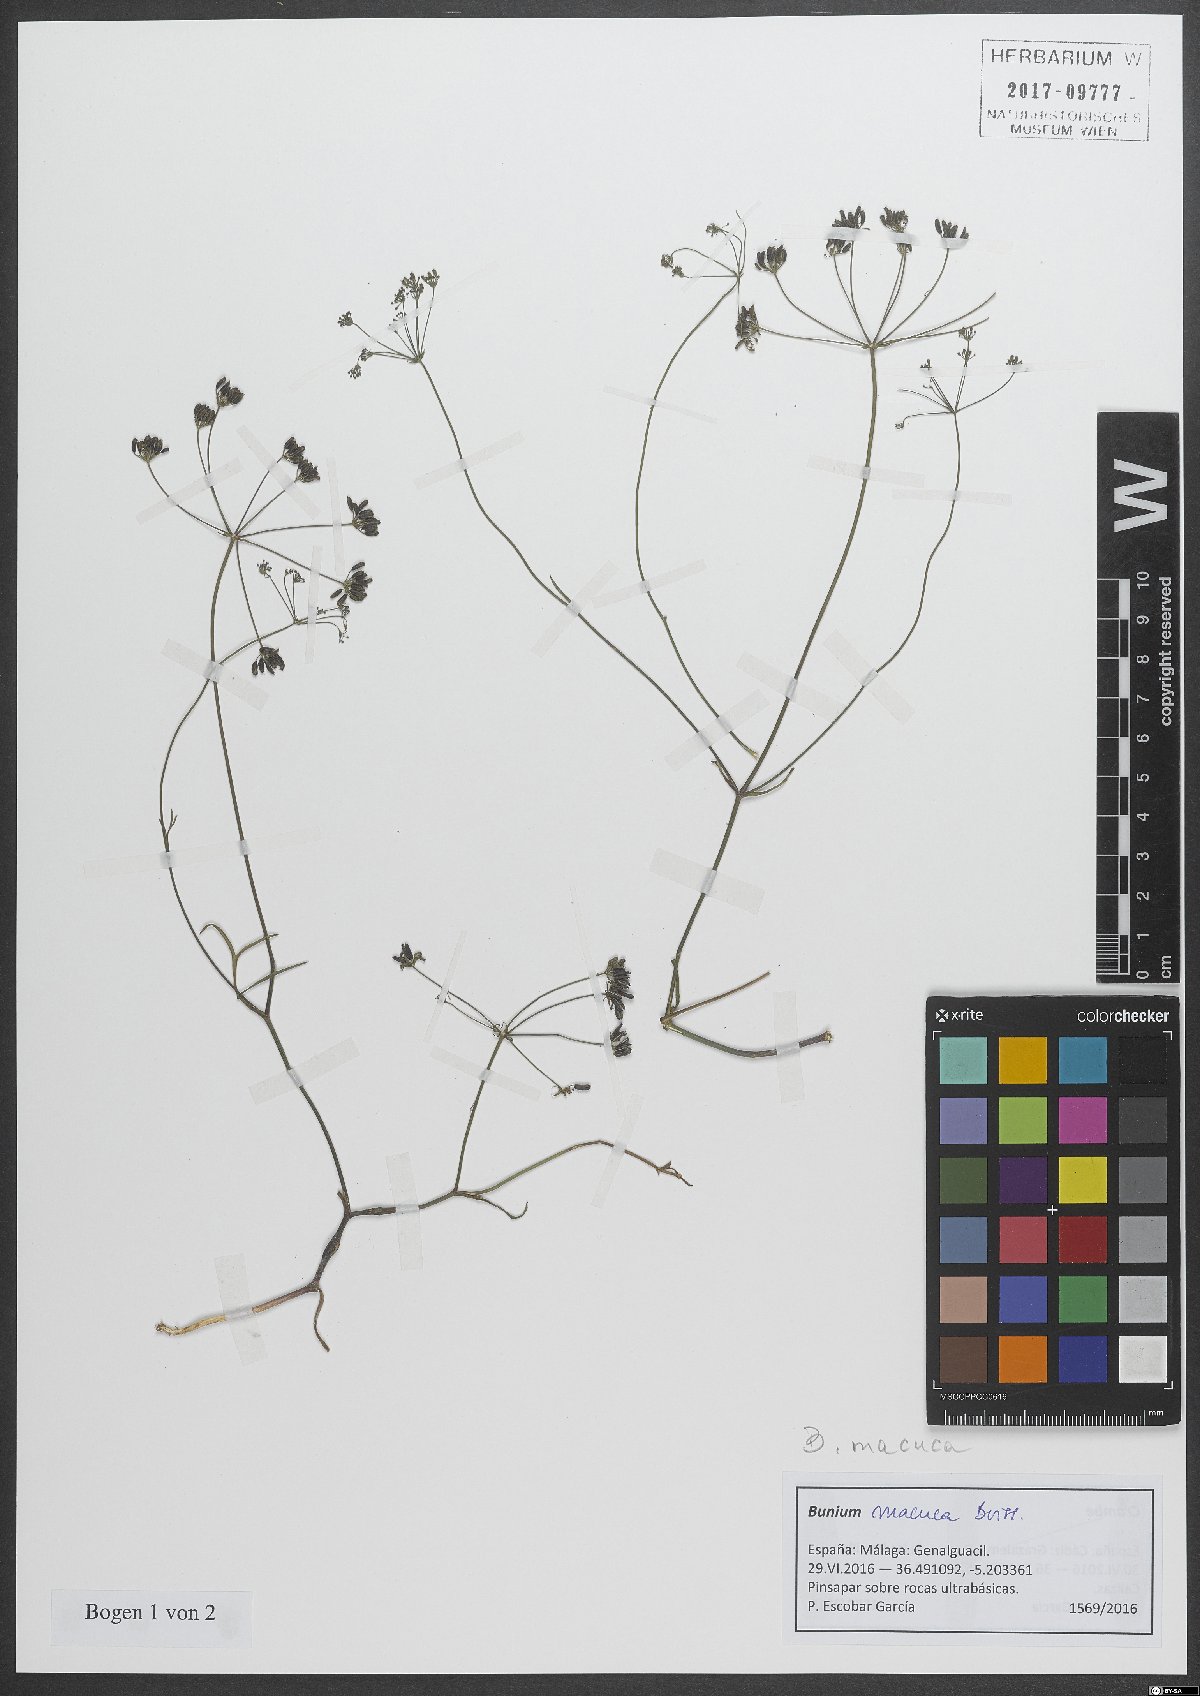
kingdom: Plantae
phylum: Tracheophyta
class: Magnoliopsida
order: Apiales
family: Apiaceae
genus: Bunium
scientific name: Bunium macuca
